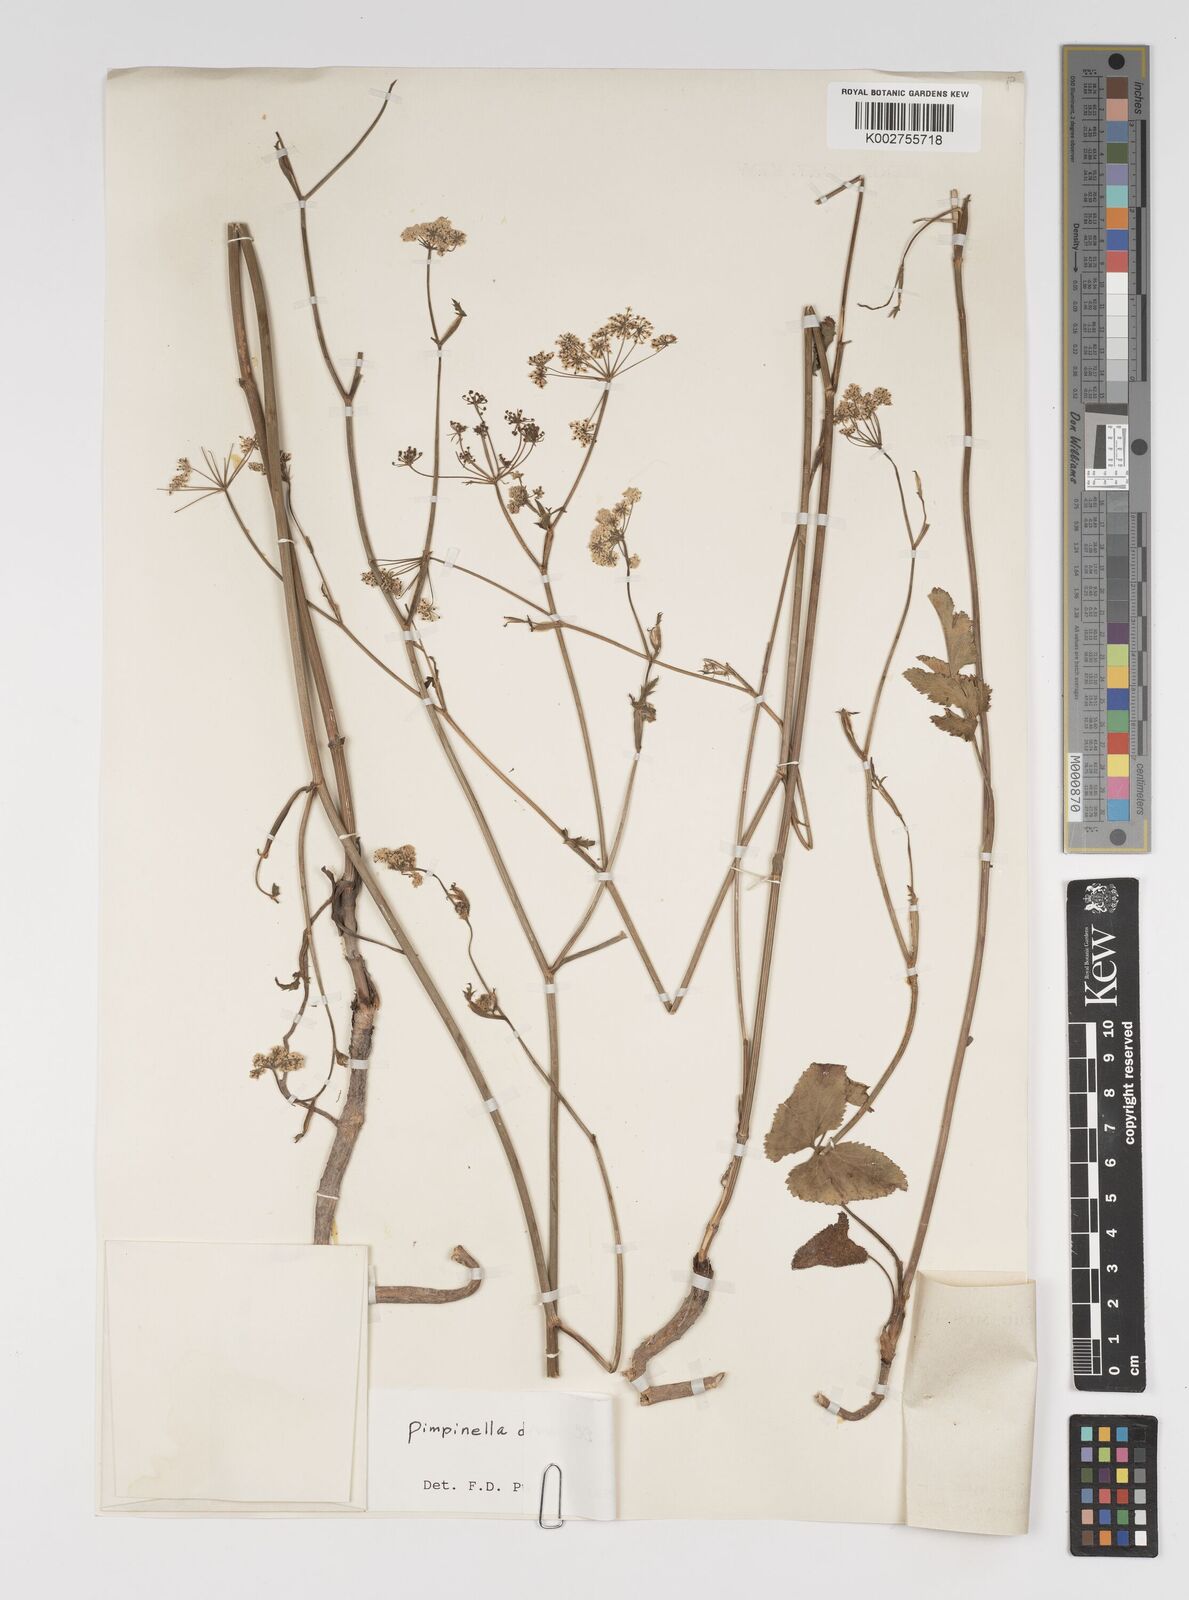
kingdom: Plantae
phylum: Tracheophyta
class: Magnoliopsida
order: Apiales
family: Apiaceae
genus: Pimpinella
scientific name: Pimpinella diversifolia
